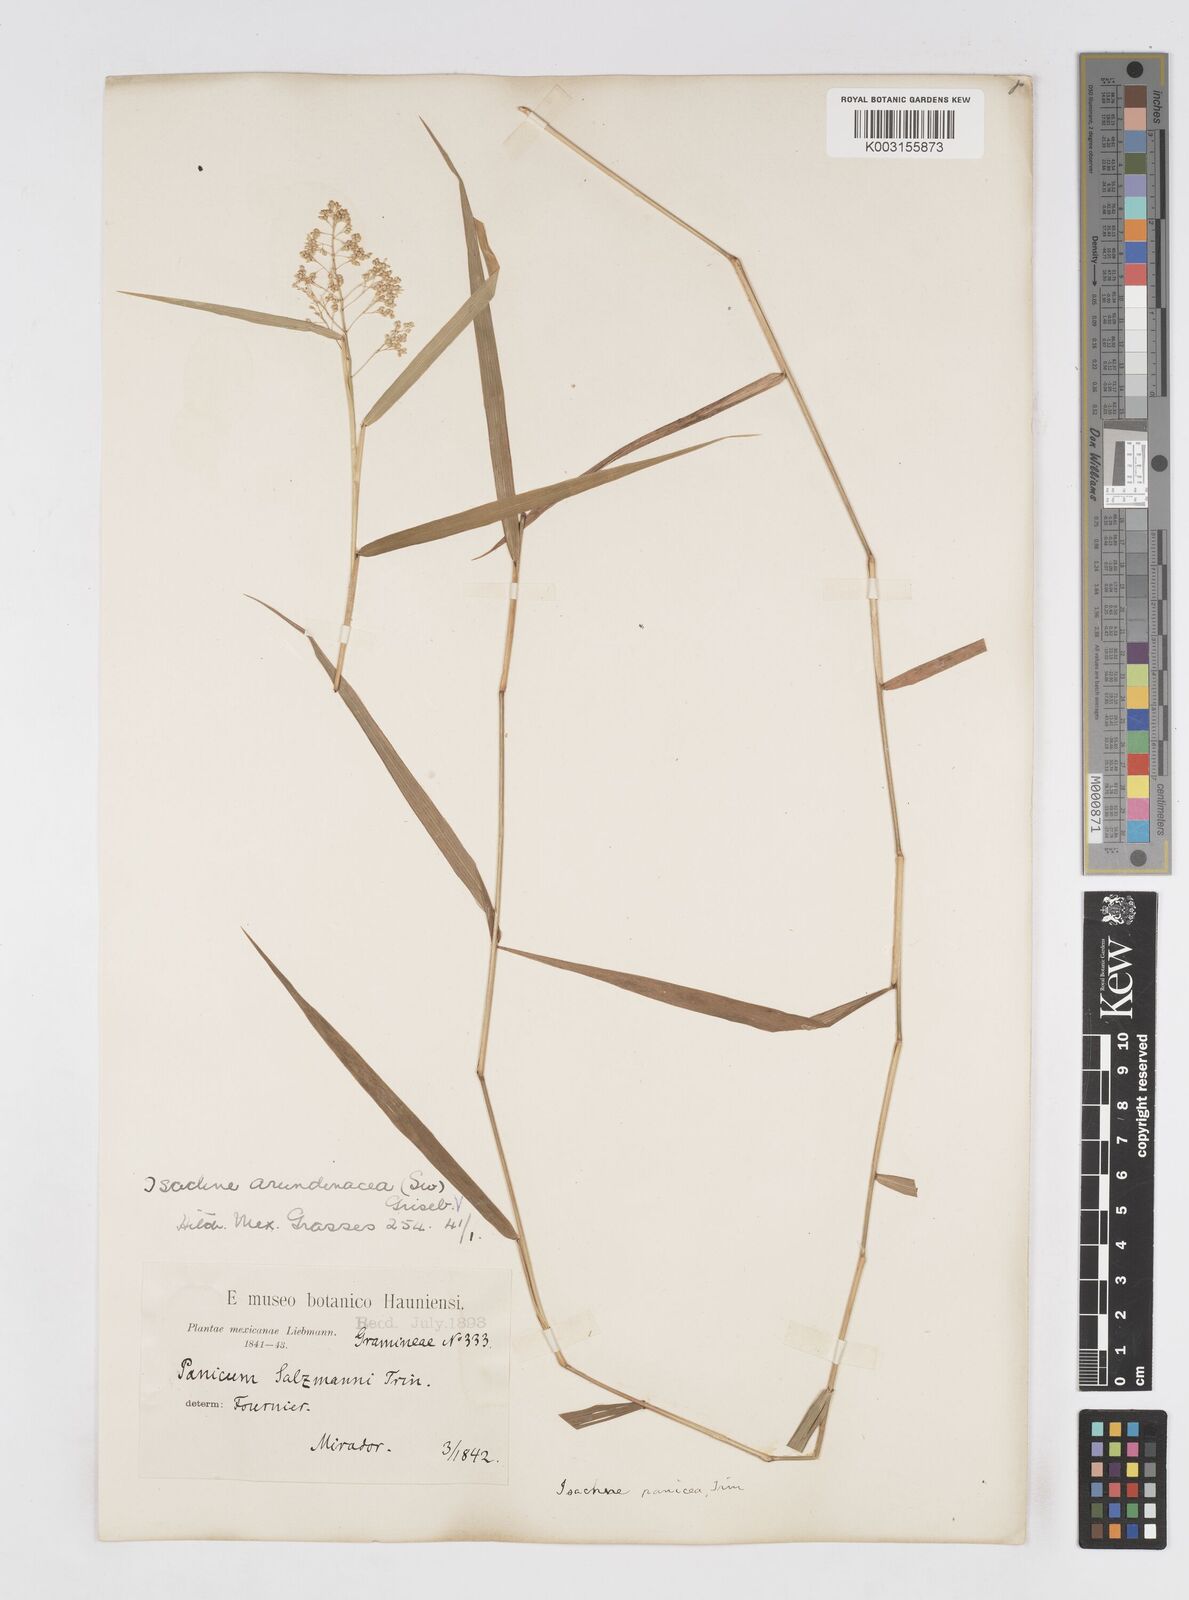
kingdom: Plantae
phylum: Tracheophyta
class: Liliopsida
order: Poales
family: Poaceae
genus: Isachne
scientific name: Isachne arundinacea
